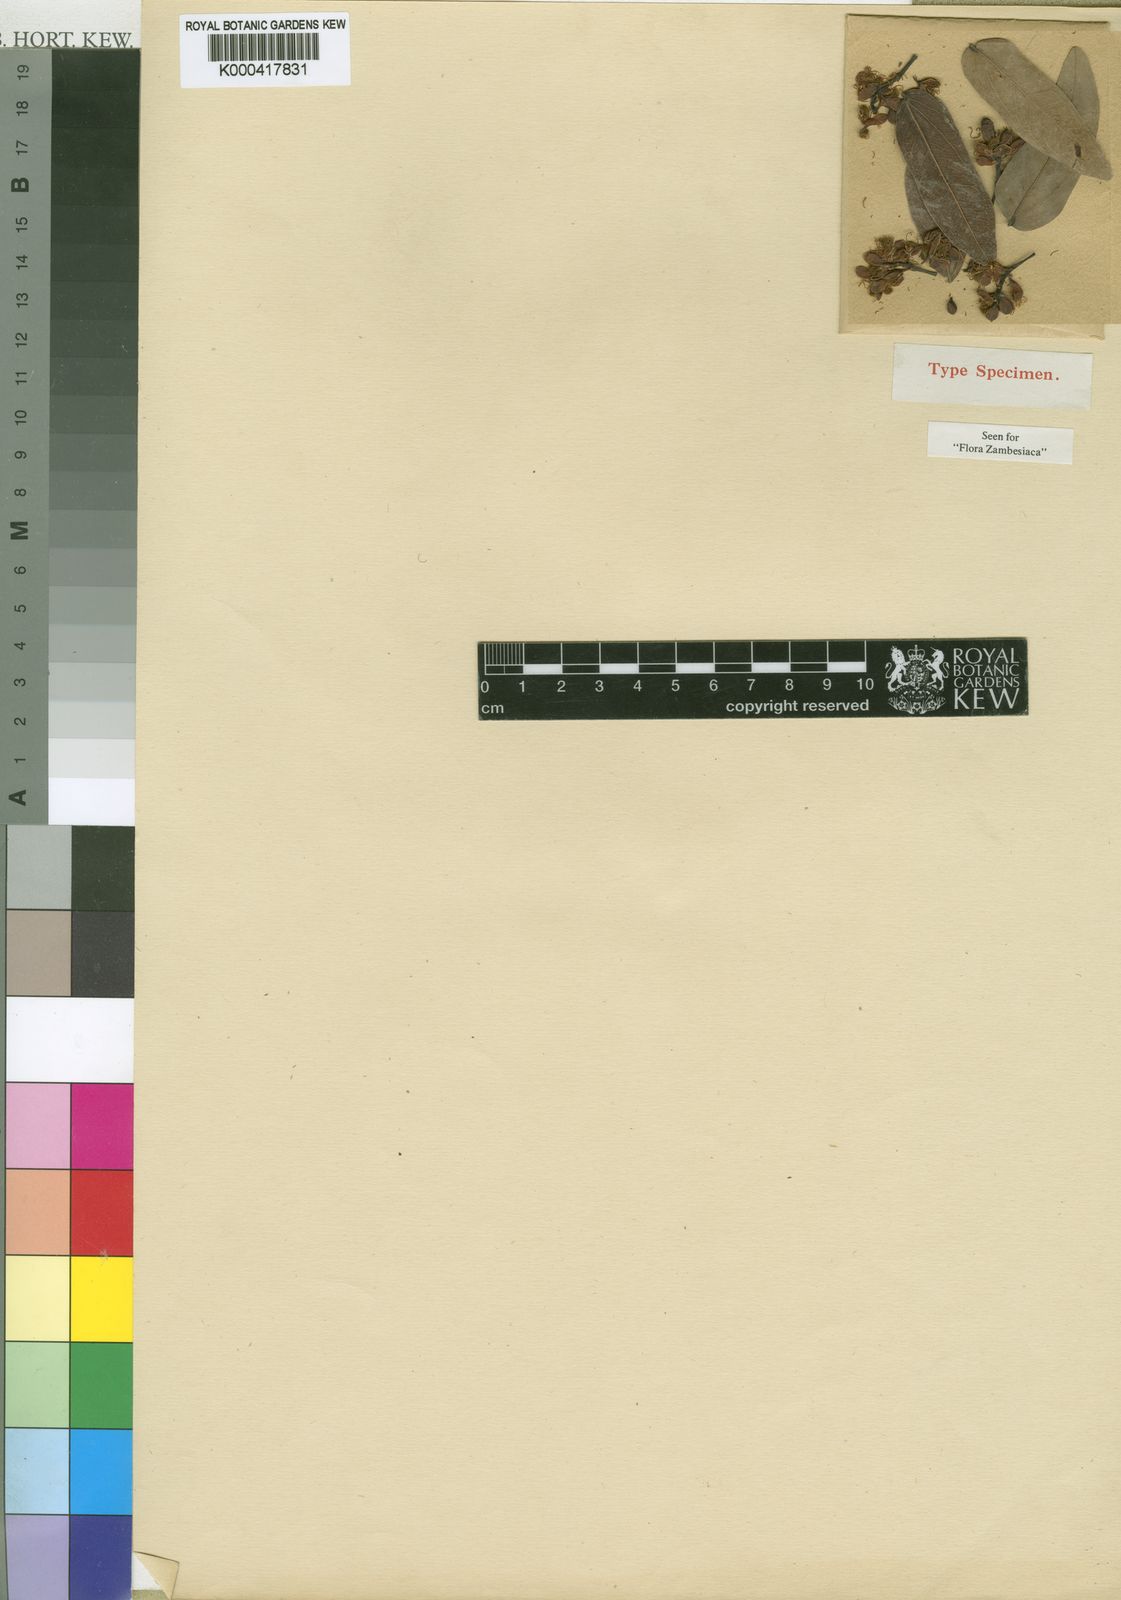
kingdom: Plantae
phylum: Tracheophyta
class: Magnoliopsida
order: Fabales
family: Fabaceae
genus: Brachystegia
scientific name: Brachystegia glaberrima
